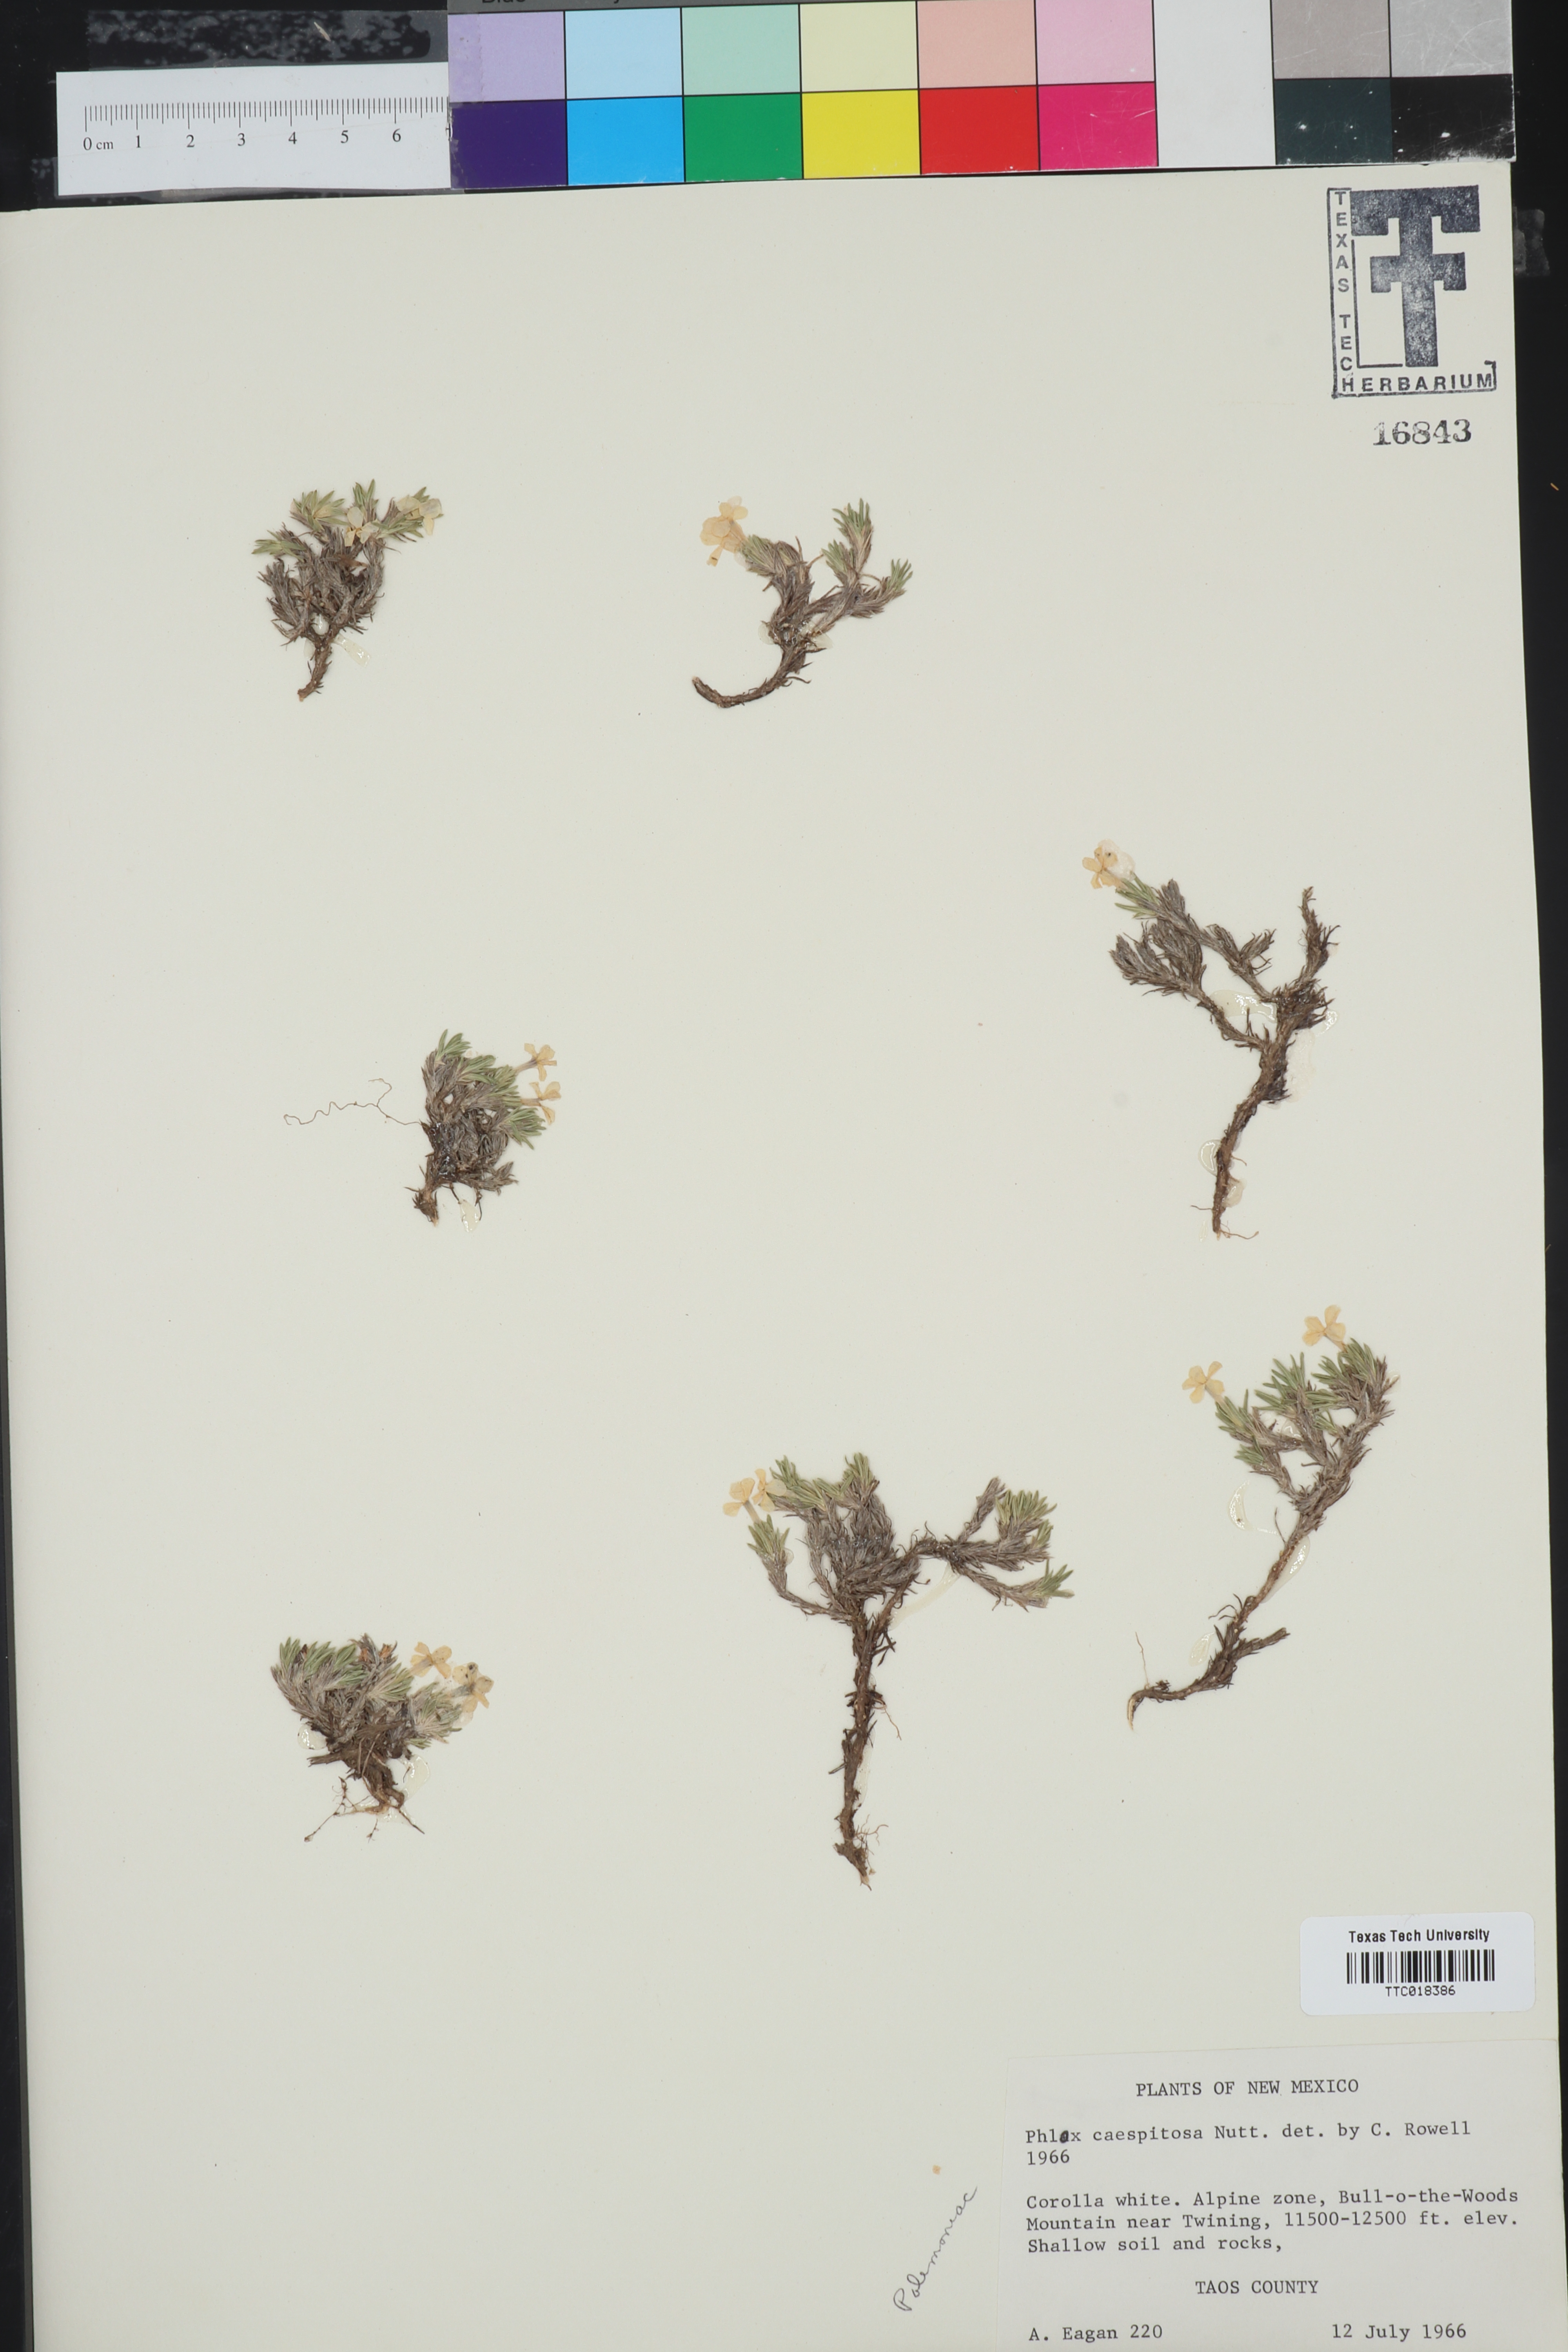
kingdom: Plantae
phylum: Tracheophyta
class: Magnoliopsida
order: Ericales
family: Polemoniaceae
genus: Phlox
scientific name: Phlox caespitosa
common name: Cushion phlox
